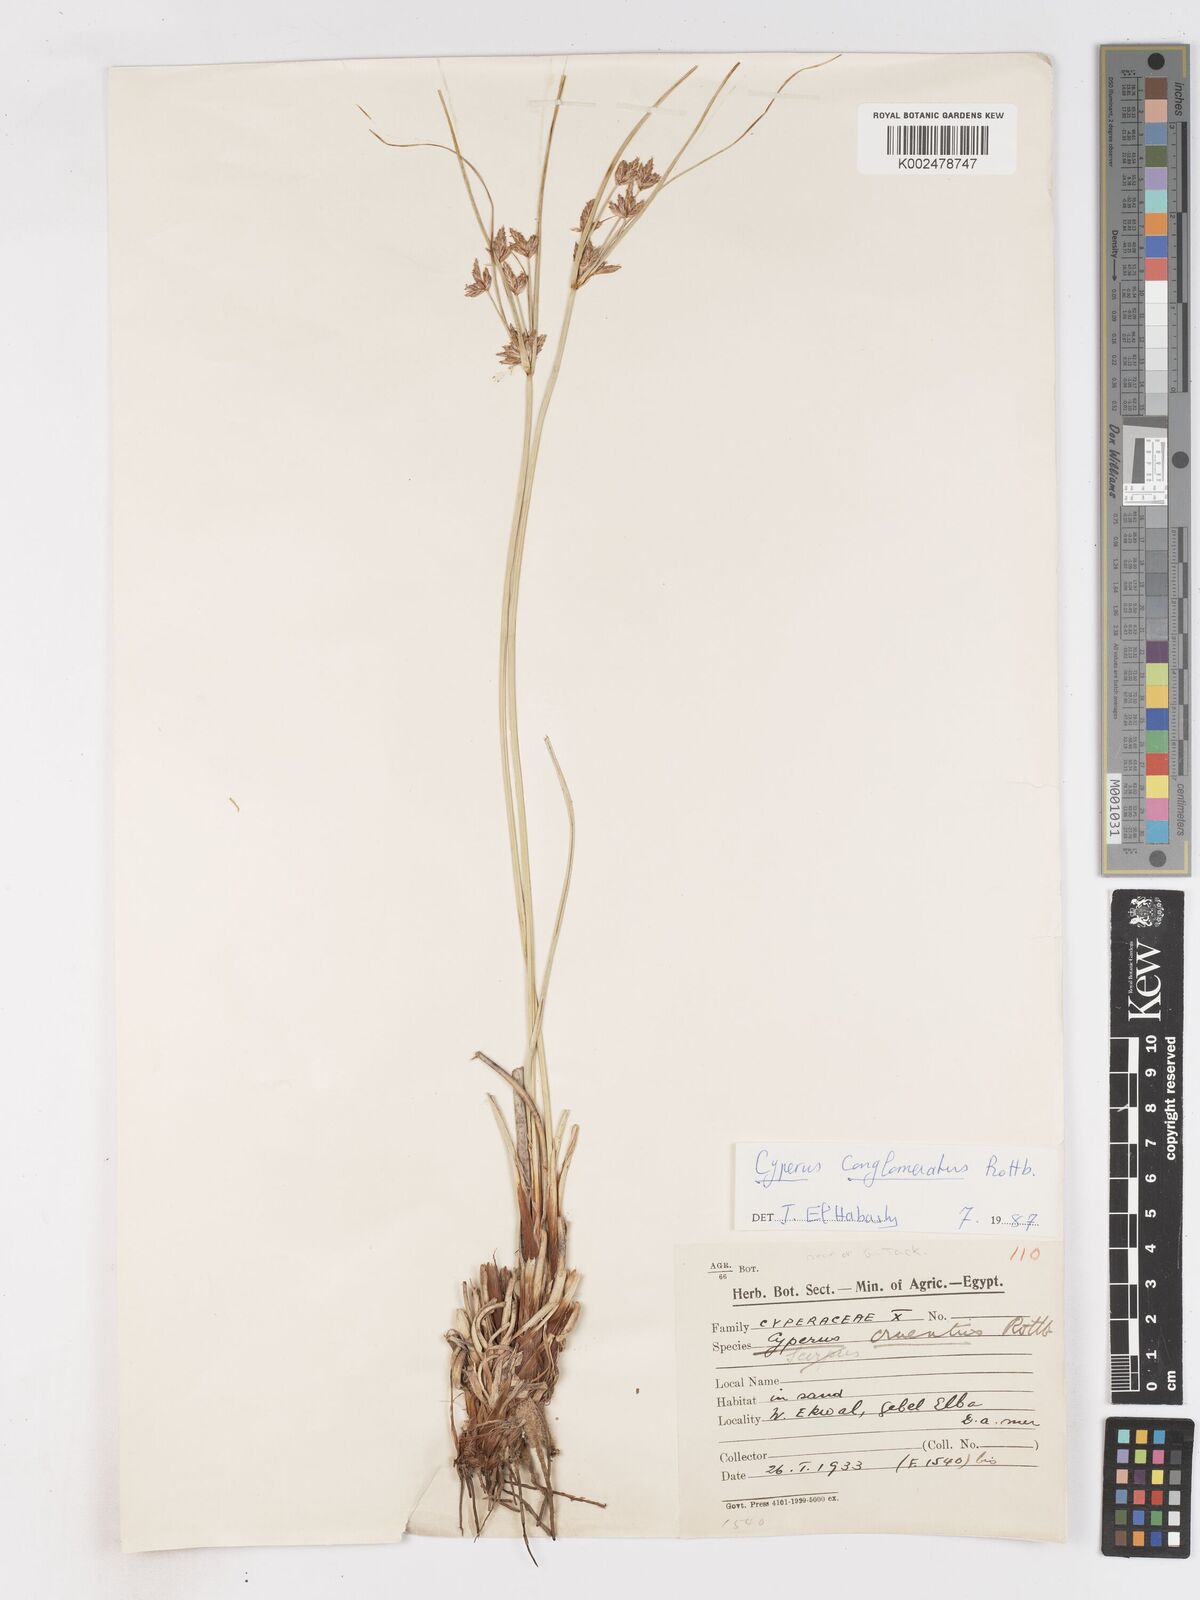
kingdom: Plantae
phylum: Tracheophyta
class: Liliopsida
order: Poales
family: Cyperaceae
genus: Cyperus
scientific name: Cyperus conglomeratus
